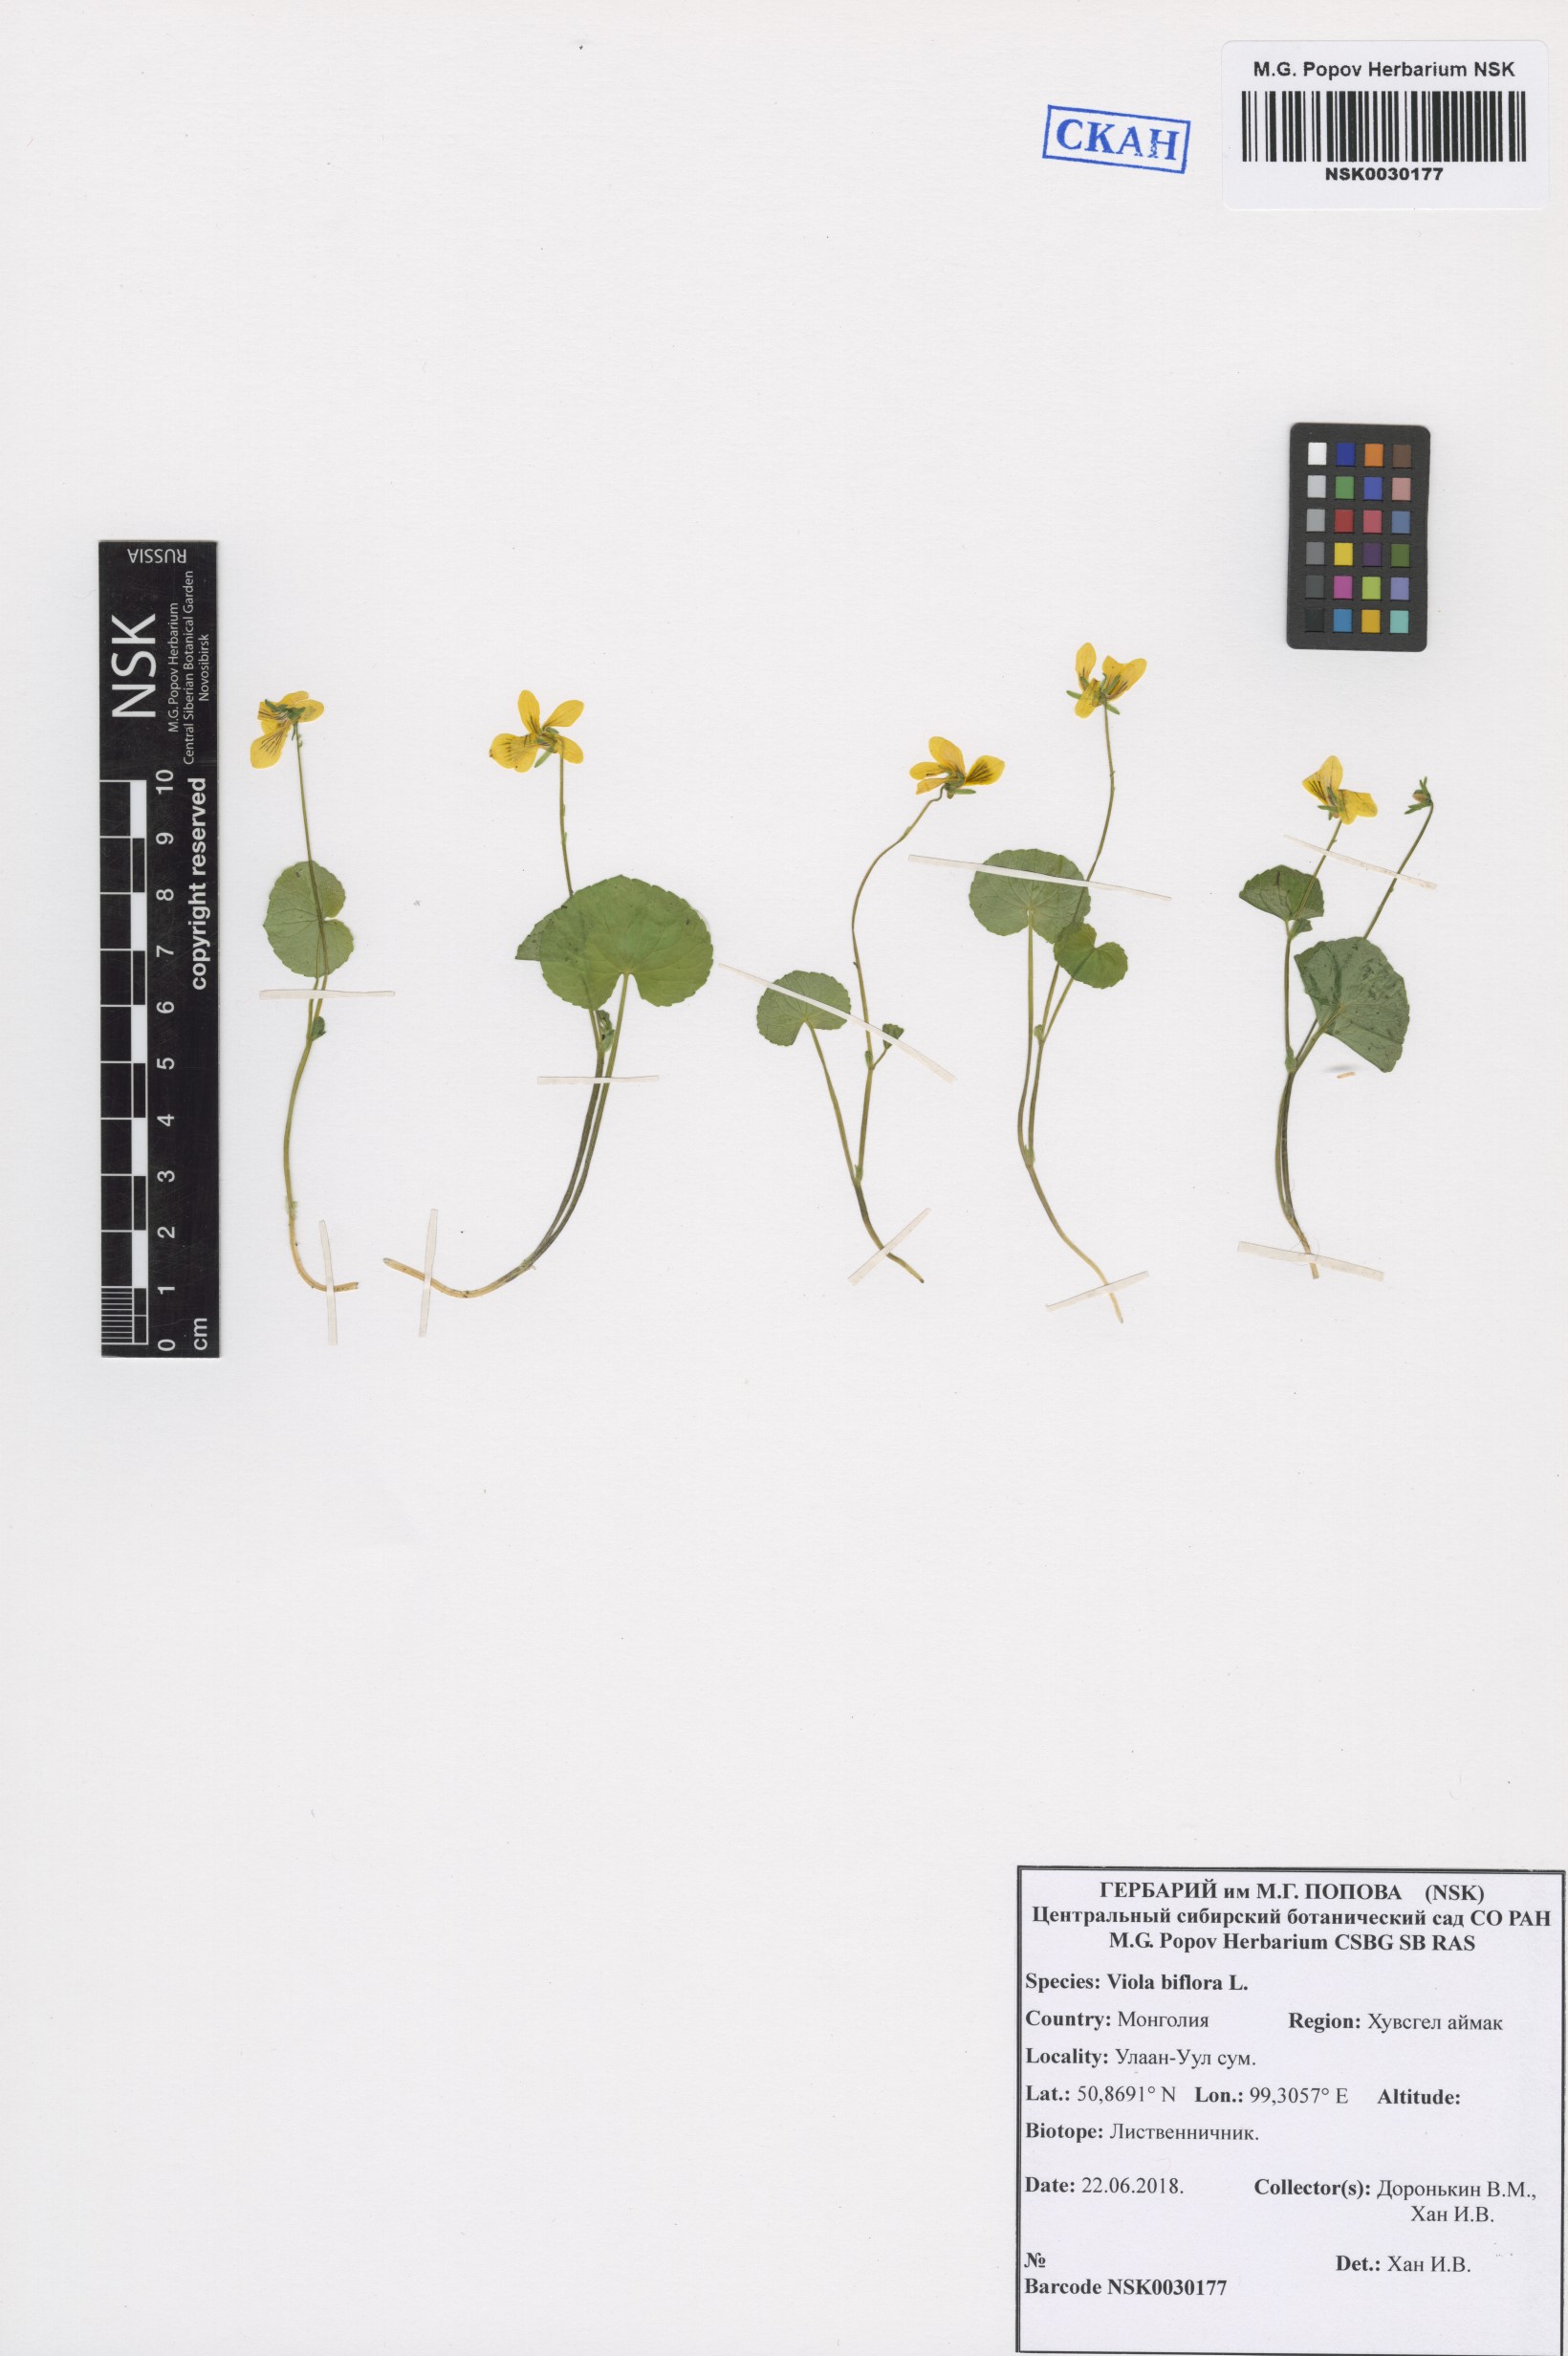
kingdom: Plantae
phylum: Tracheophyta
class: Magnoliopsida
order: Malpighiales
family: Violaceae
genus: Viola
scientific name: Viola biflora
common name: Alpine yellow violet
